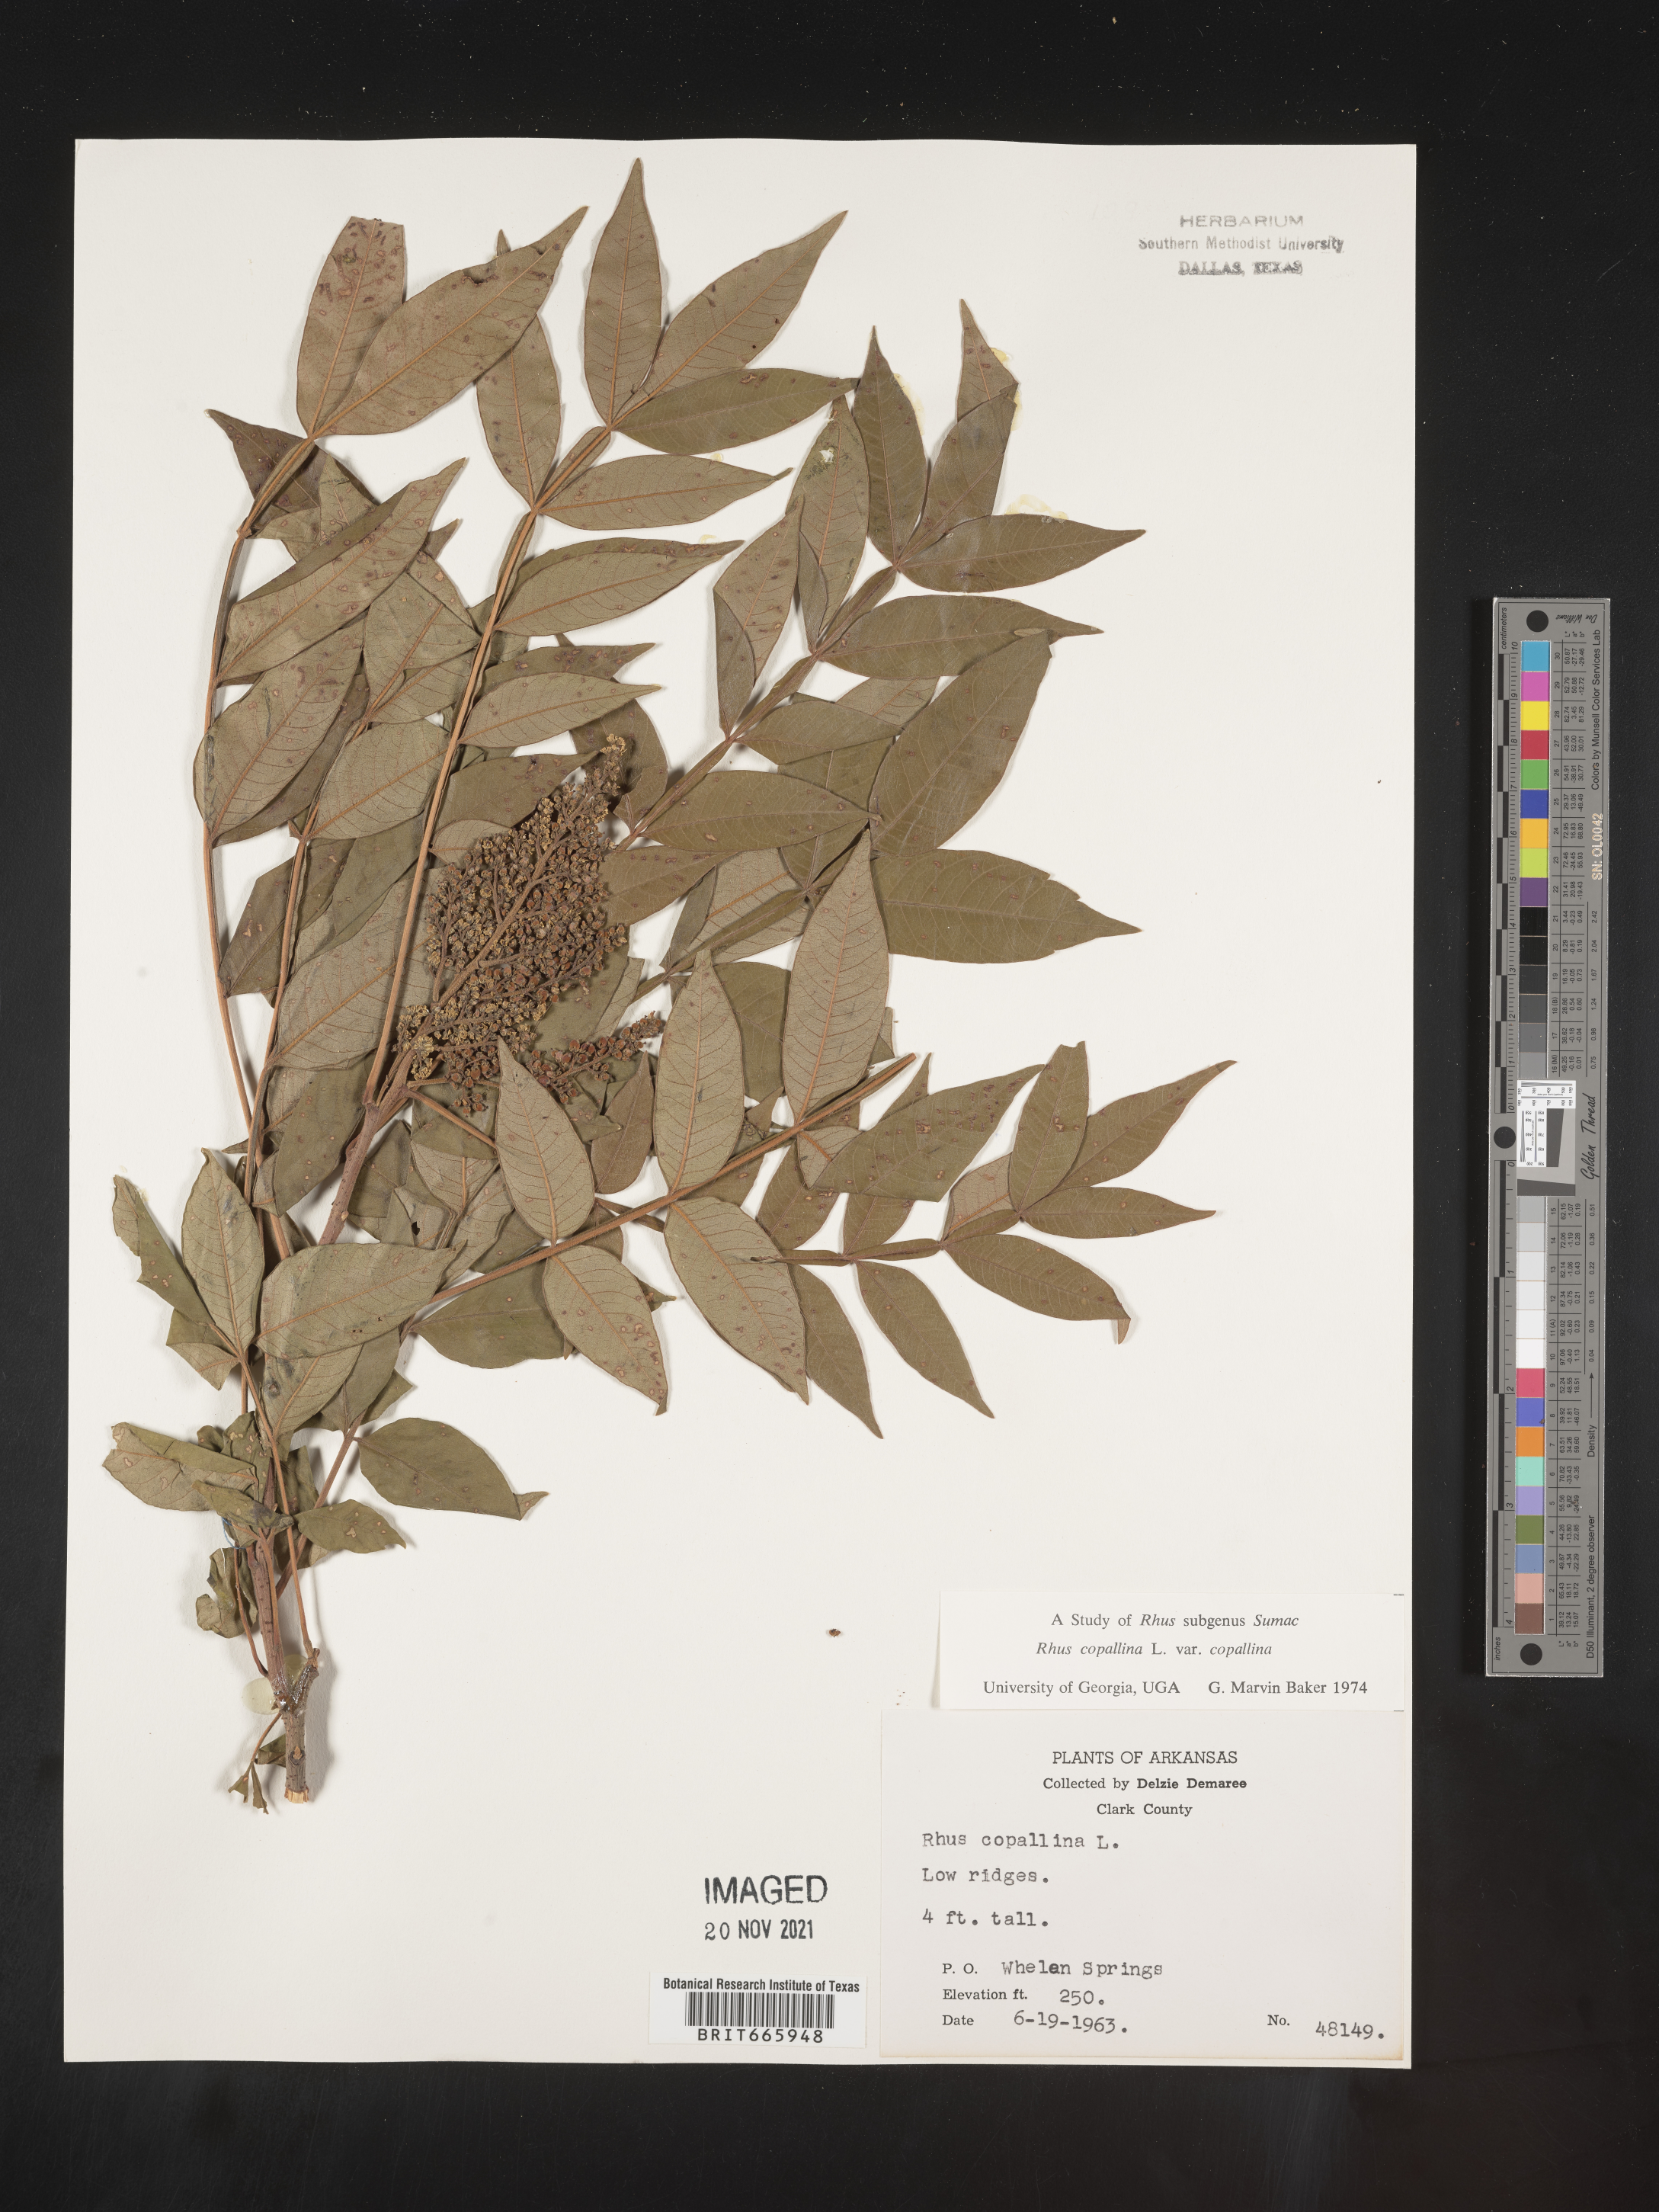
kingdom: Plantae
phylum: Tracheophyta
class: Magnoliopsida
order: Sapindales
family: Anacardiaceae
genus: Rhus
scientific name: Rhus copallina
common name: Shining sumac
